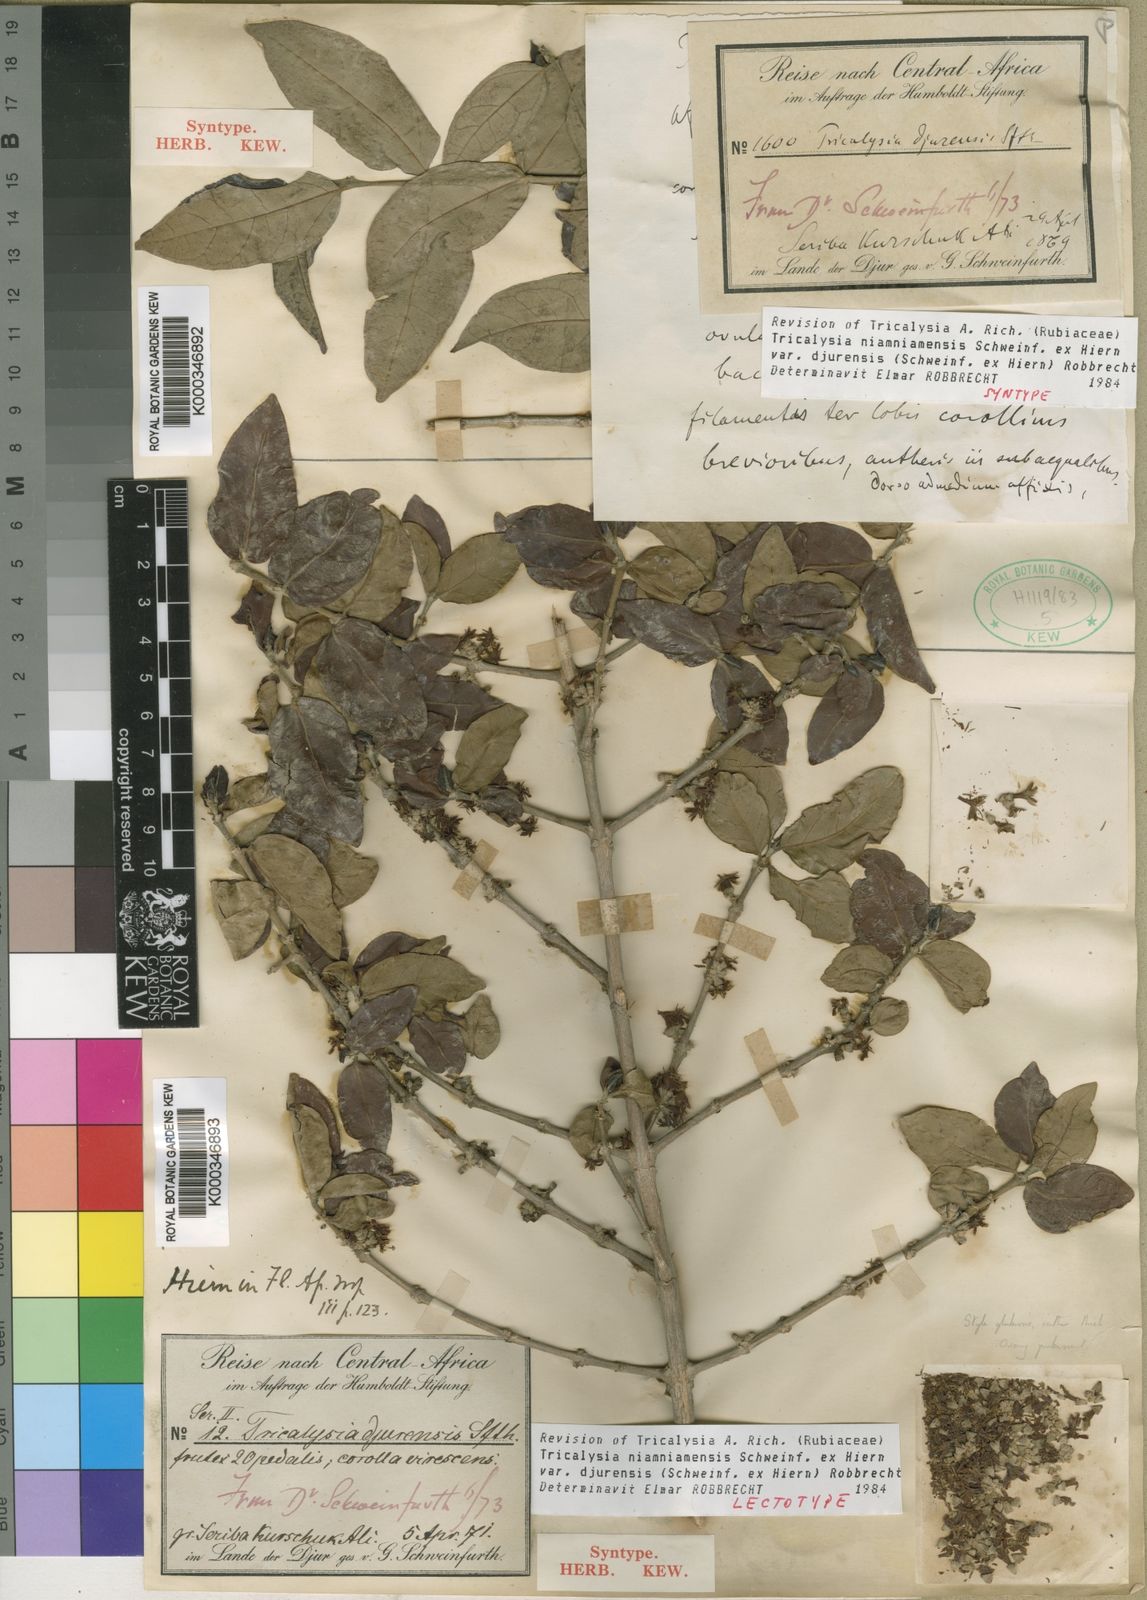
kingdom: Plantae
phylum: Tracheophyta
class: Magnoliopsida
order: Gentianales
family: Rubiaceae
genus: Tricalysia
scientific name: Tricalysia niamniamensis
